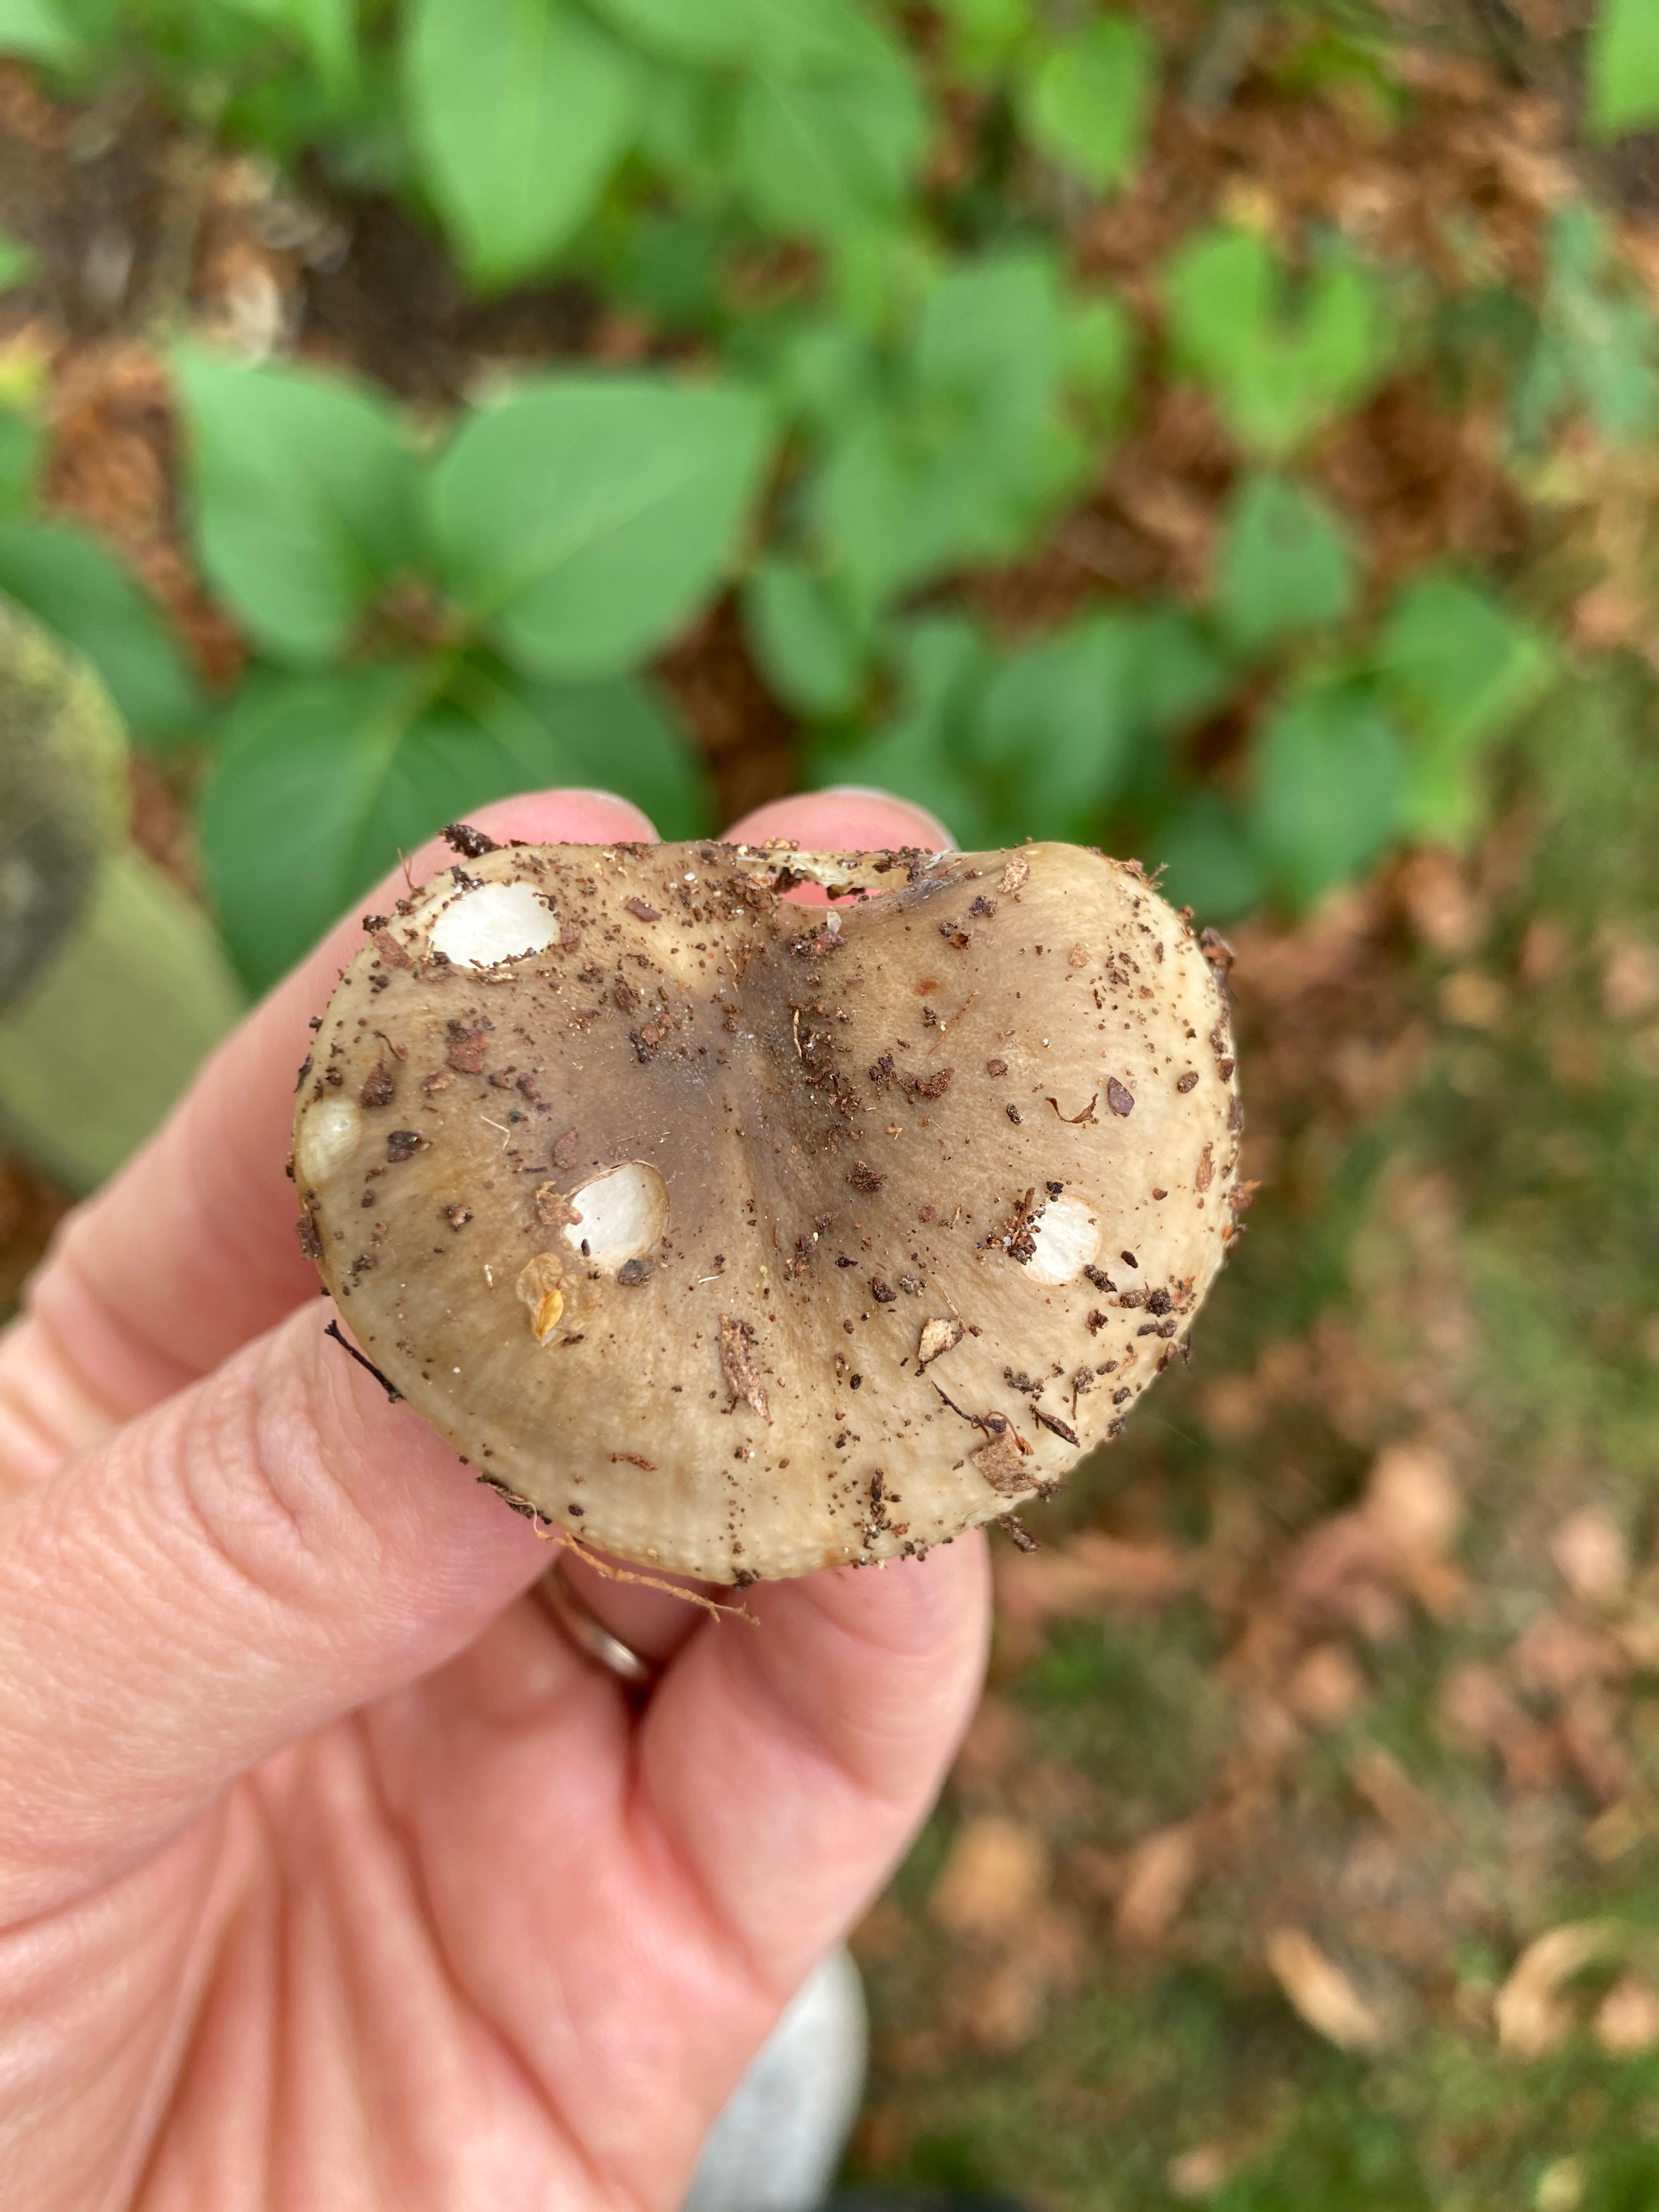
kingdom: Fungi
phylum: Basidiomycota
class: Agaricomycetes
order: Russulales
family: Russulaceae
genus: Russula
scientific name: Russula
